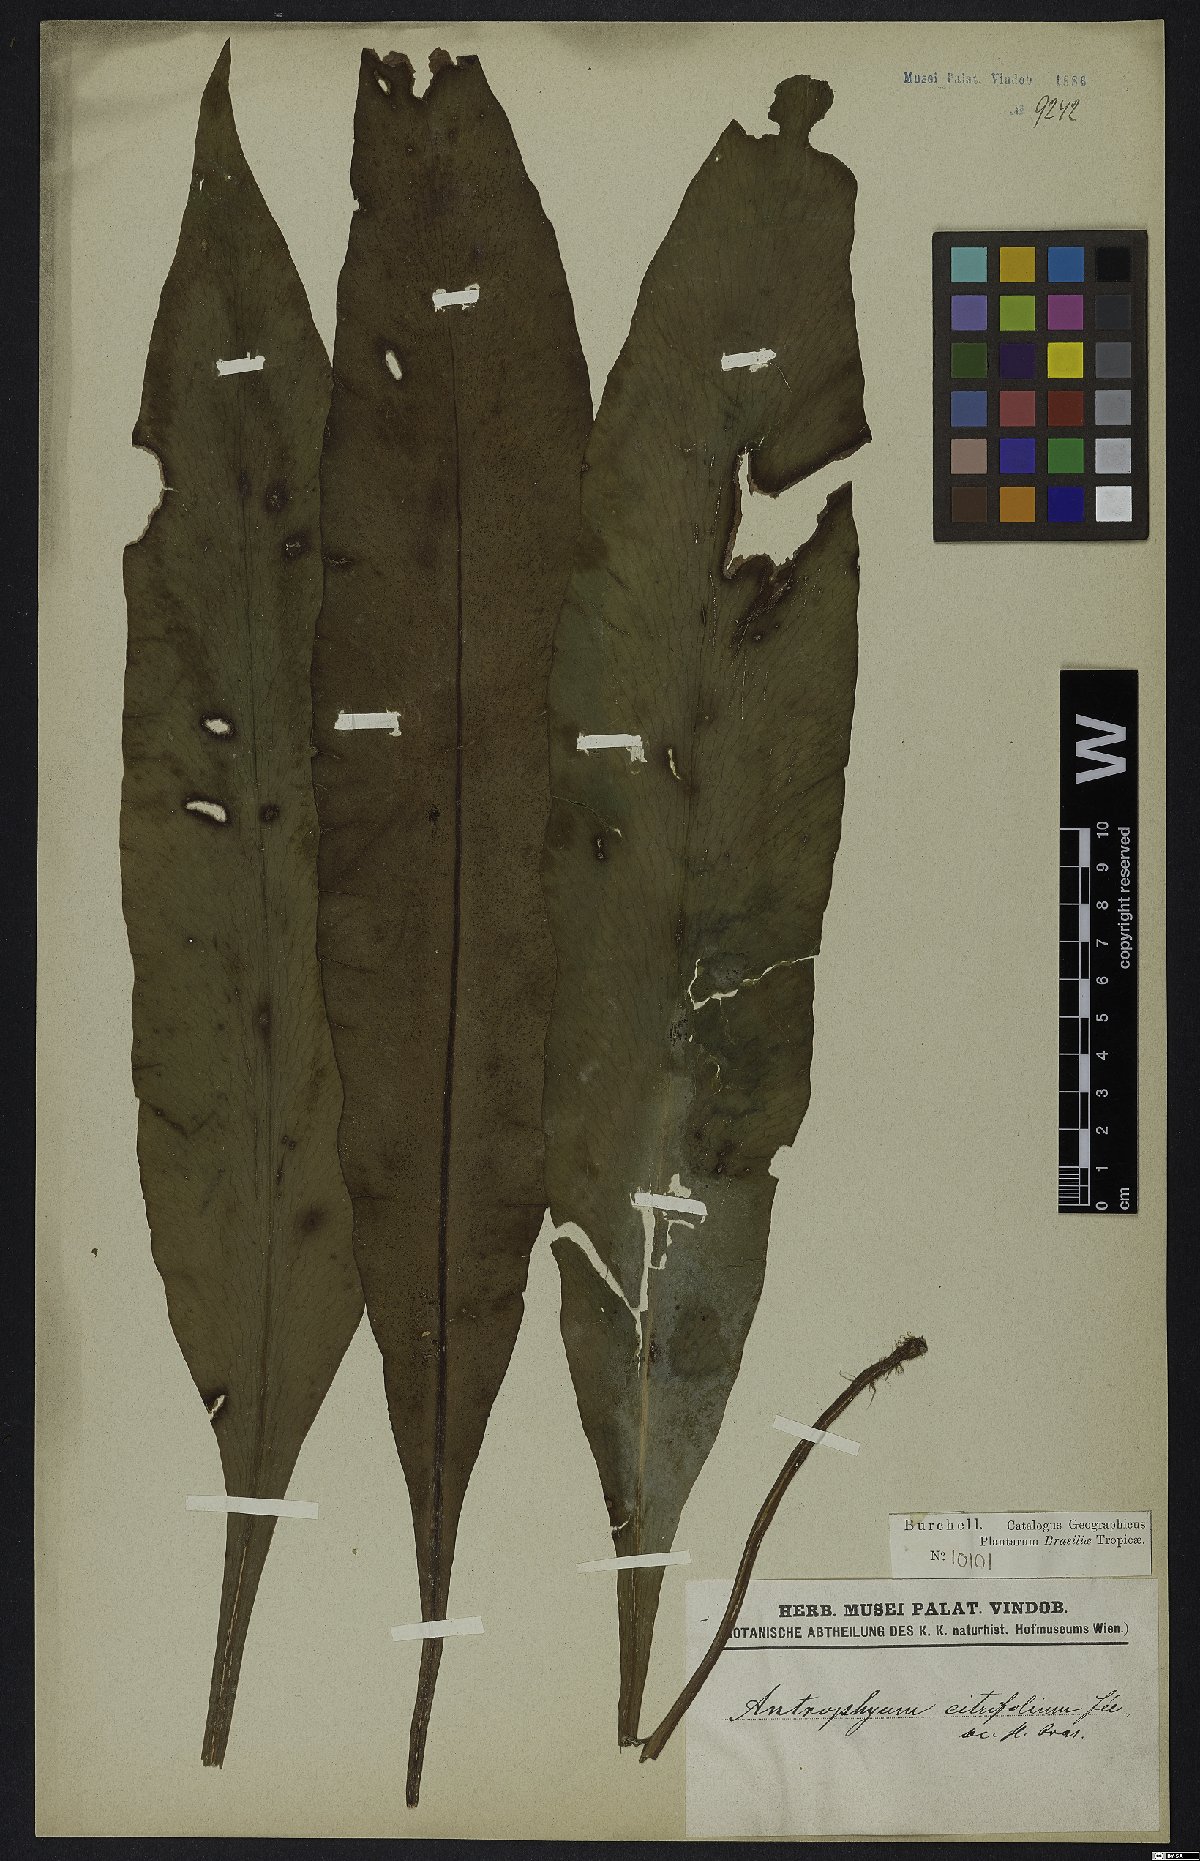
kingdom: Plantae
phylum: Tracheophyta
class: Polypodiopsida
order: Polypodiales
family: Pteridaceae
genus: Polytaenium
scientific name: Polytaenium citrifolium
